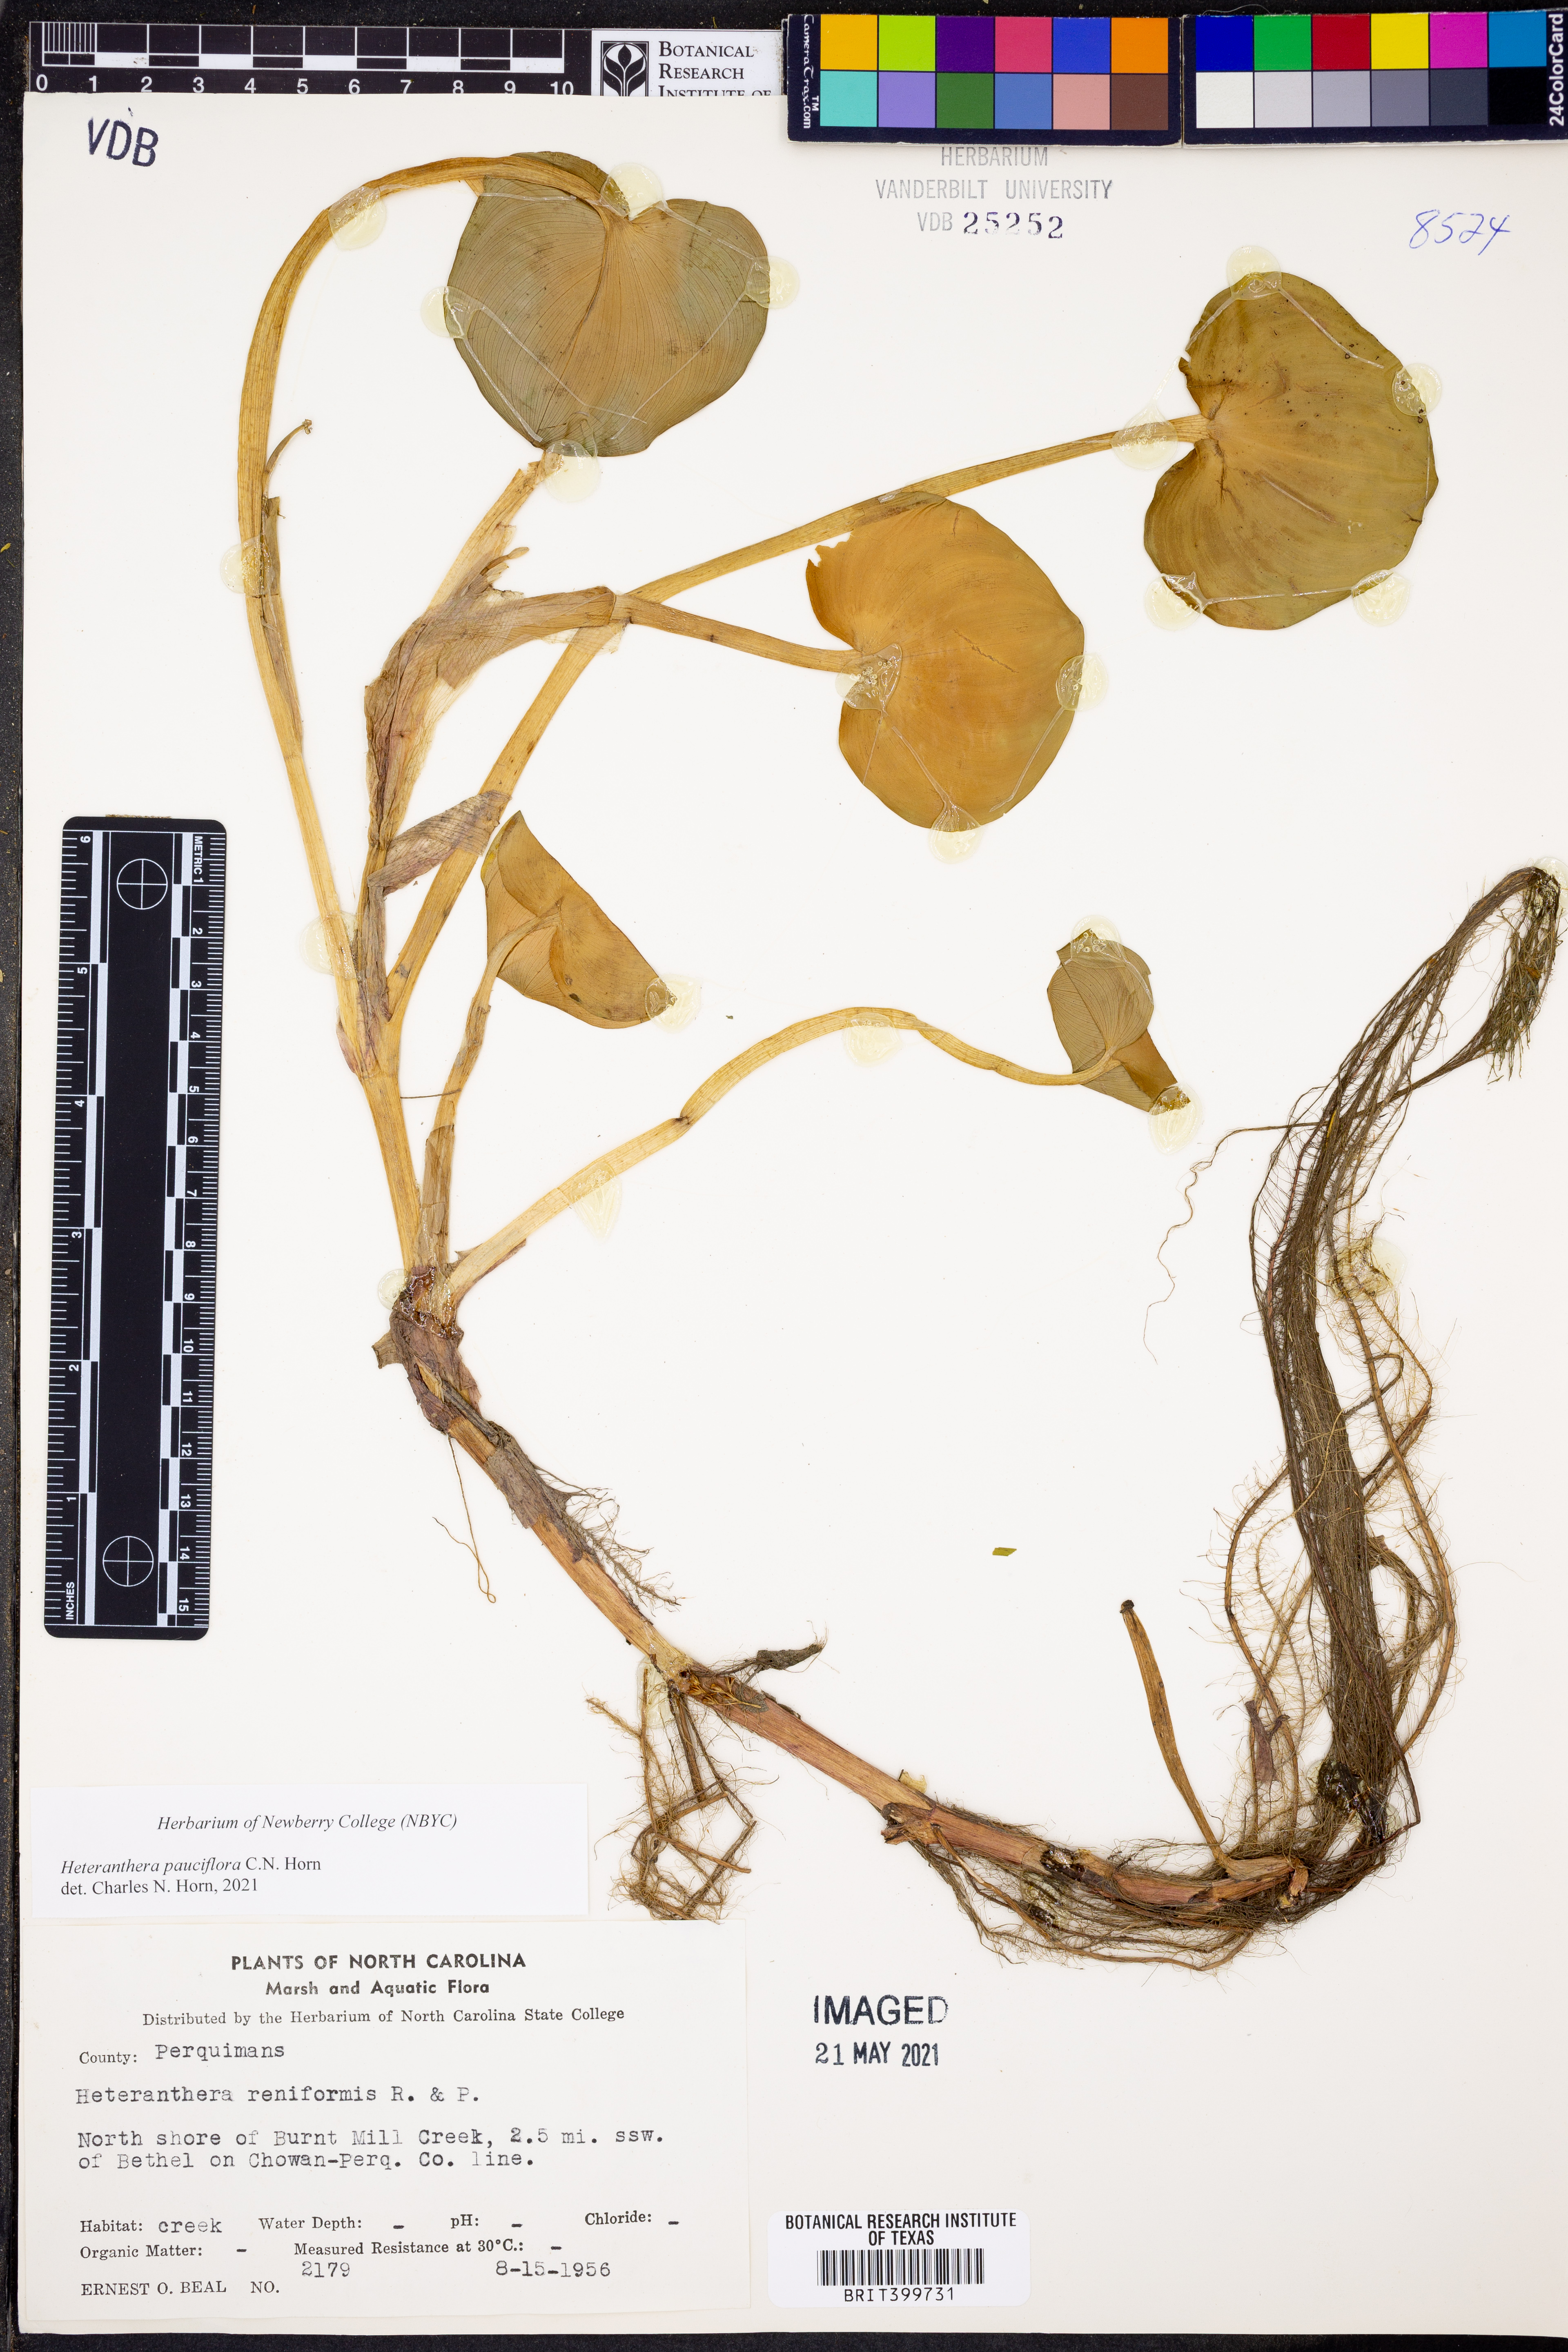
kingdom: Plantae
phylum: Tracheophyta
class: Liliopsida
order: Commelinales
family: Pontederiaceae
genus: Heteranthera
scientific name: Heteranthera pauciflora
